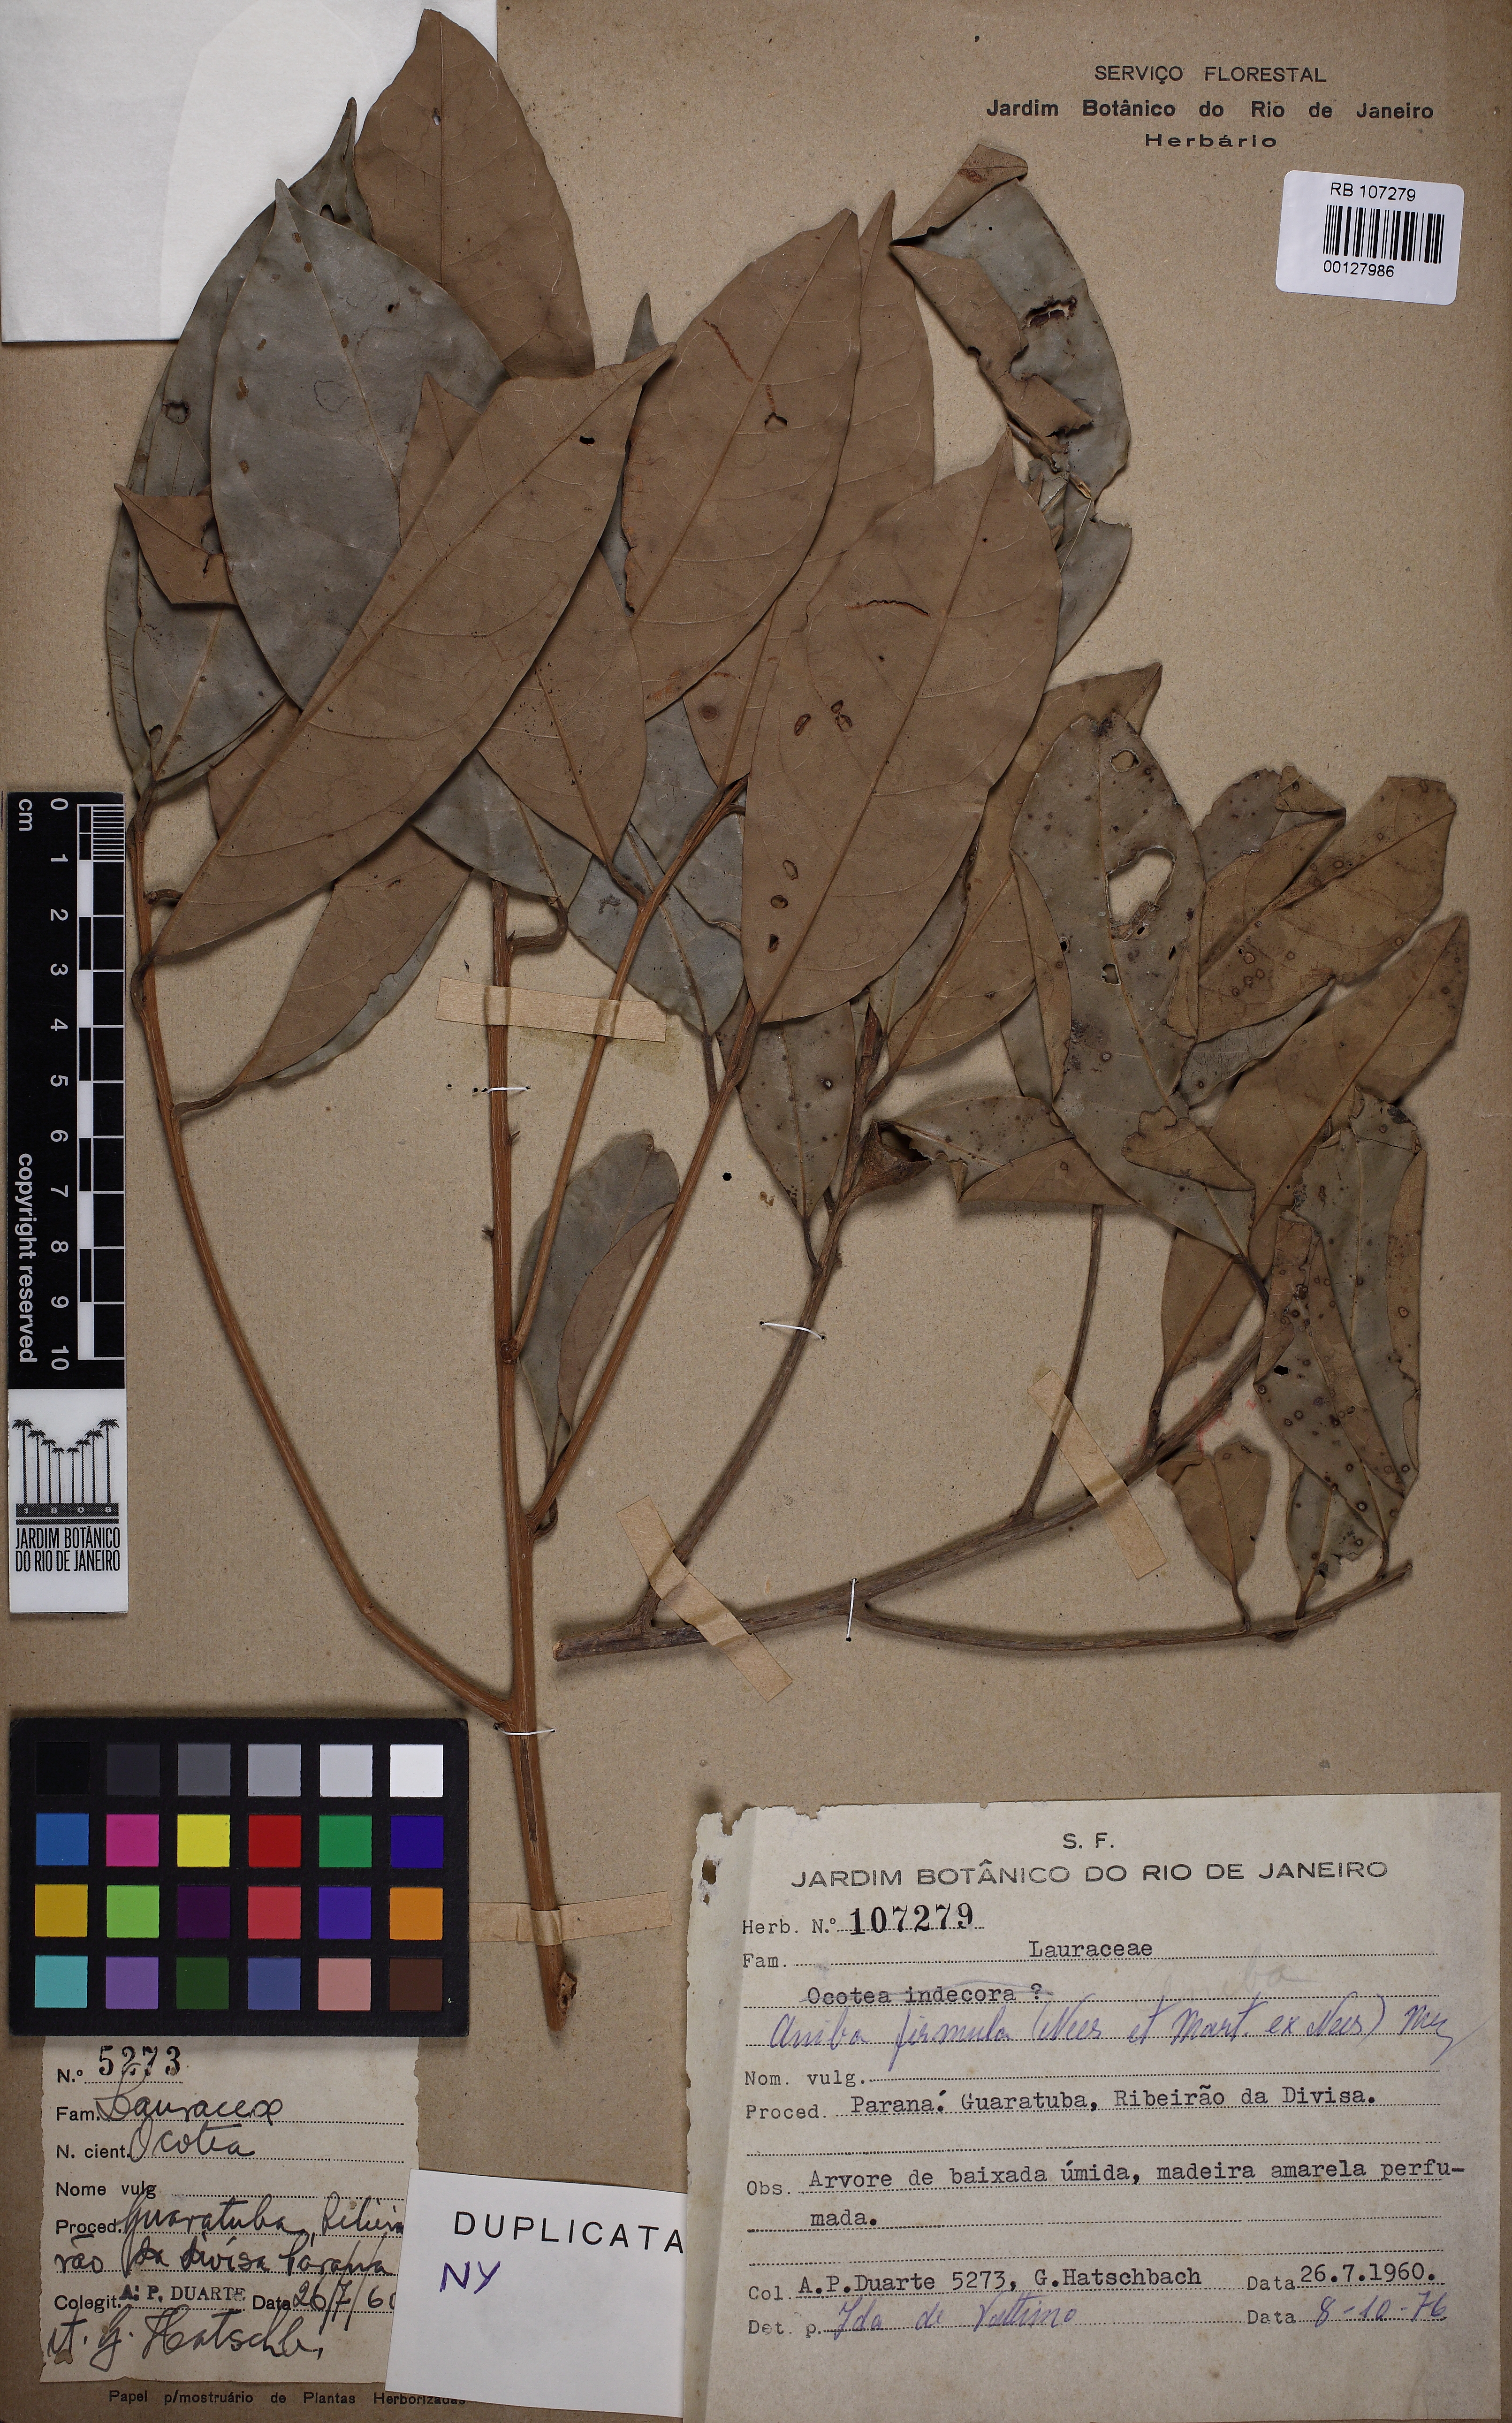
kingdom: Plantae
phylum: Tracheophyta
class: Magnoliopsida
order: Laurales
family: Lauraceae
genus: Aniba
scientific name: Aniba firmula
